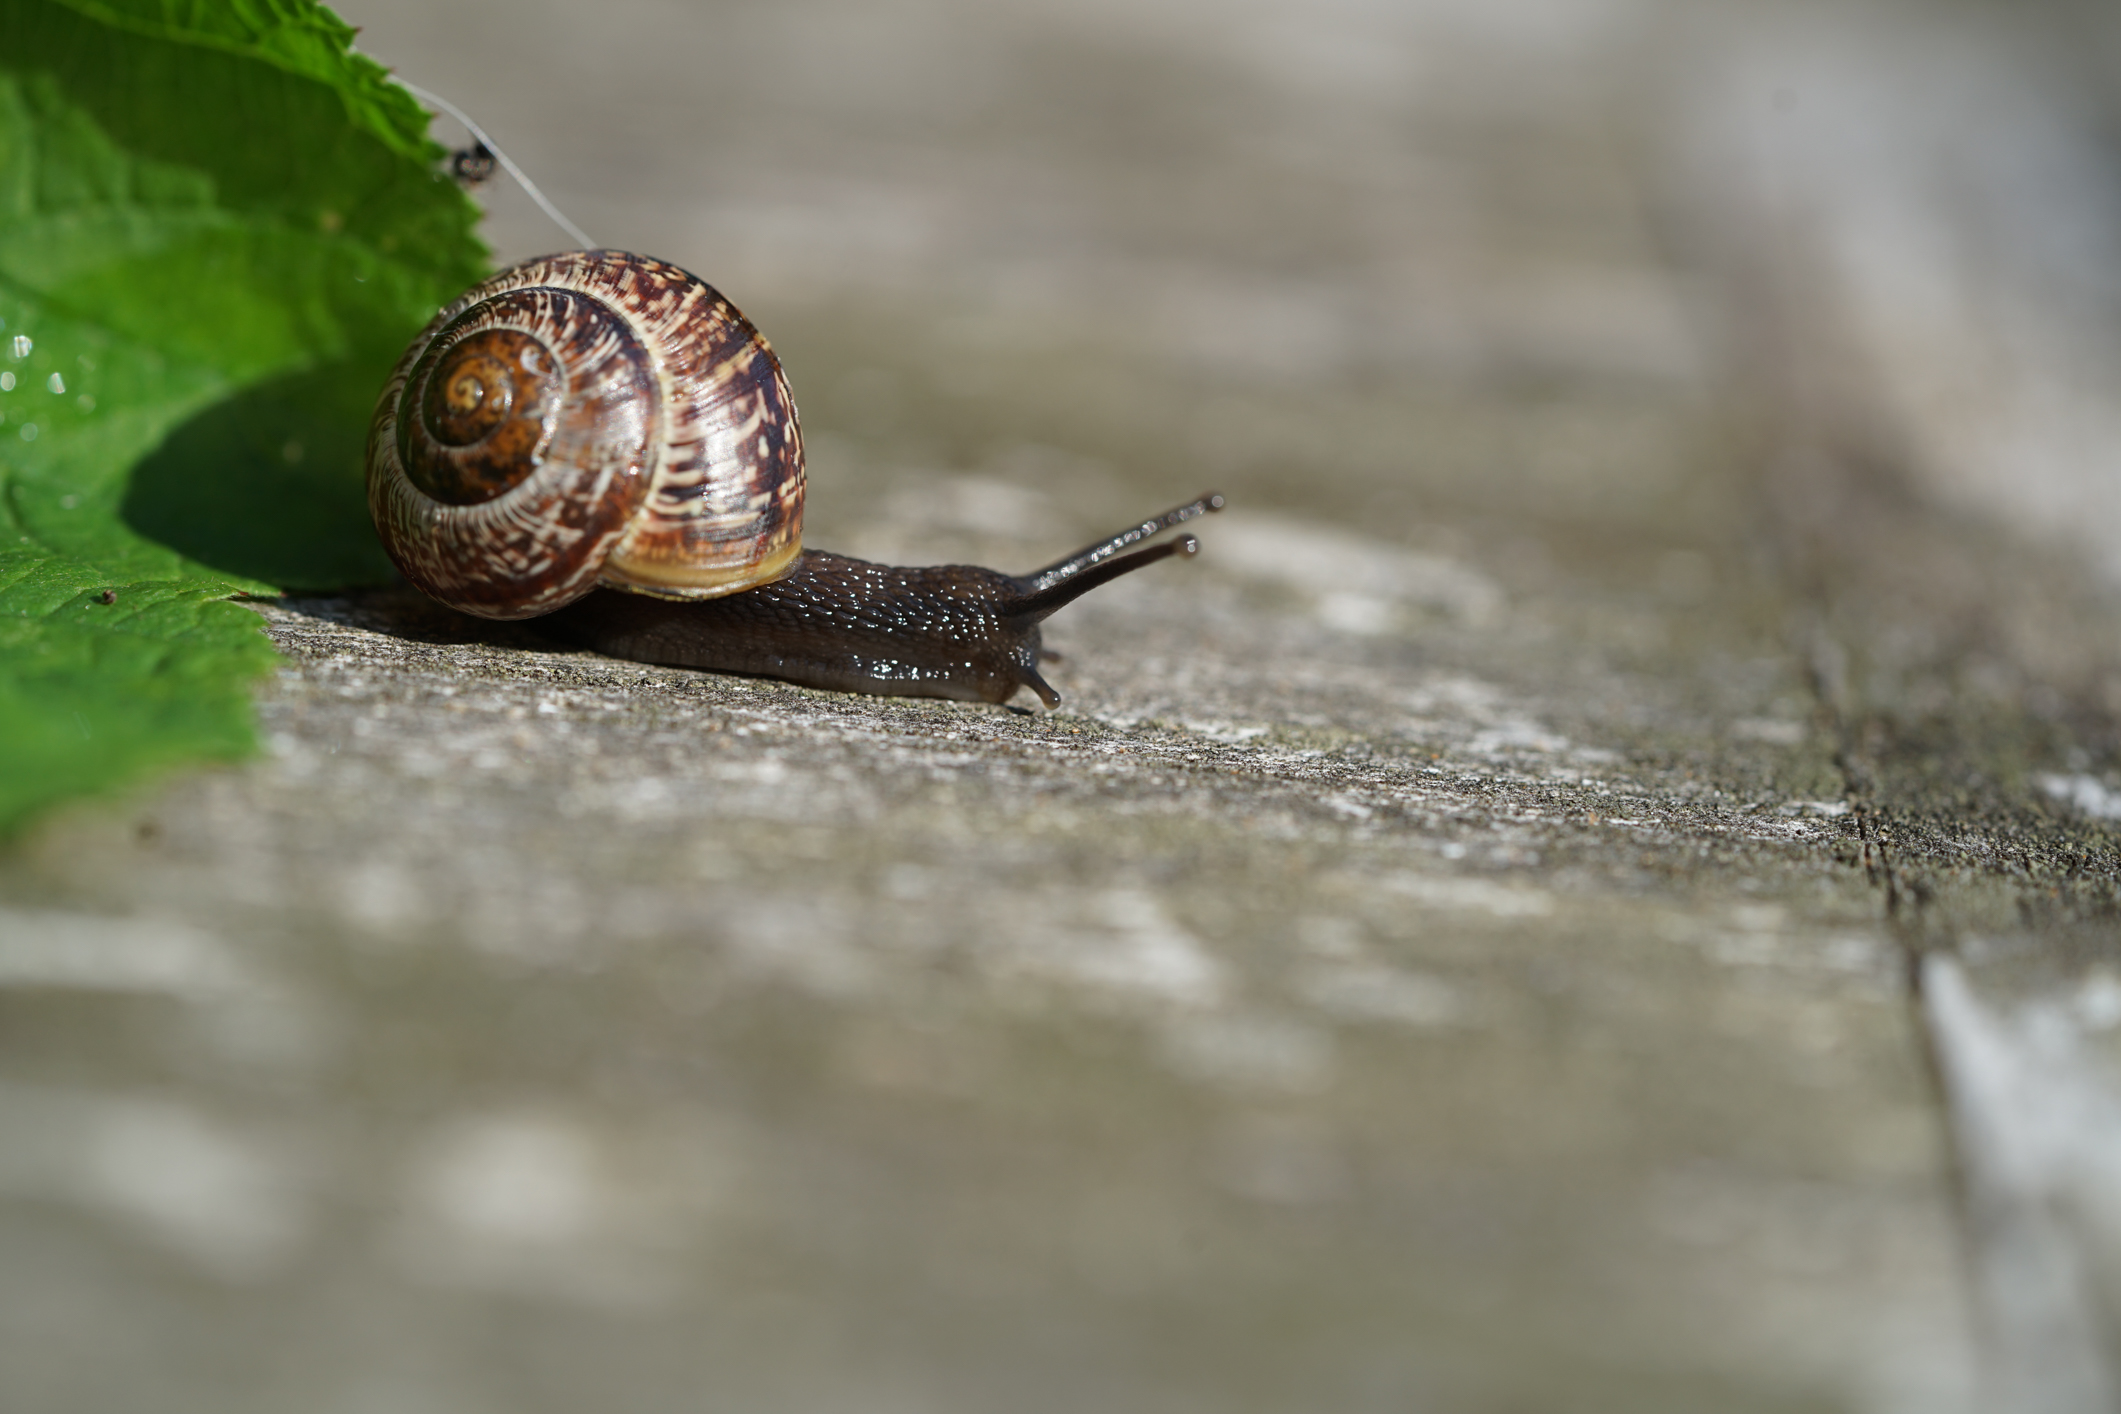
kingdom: Animalia
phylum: Mollusca
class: Gastropoda
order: Stylommatophora
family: Helicidae
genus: Cepaea
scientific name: Cepaea hortensis
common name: White-lip gardensnail
